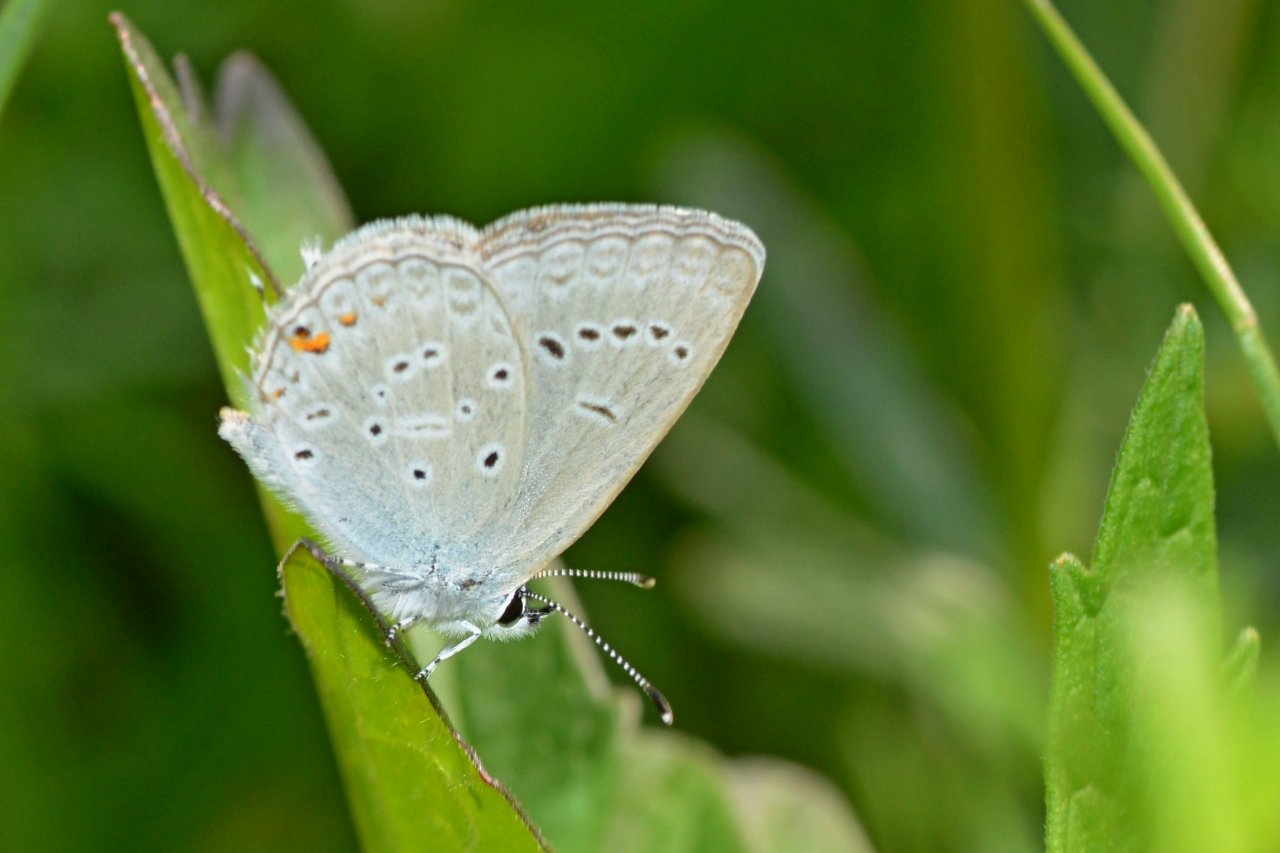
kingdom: Animalia
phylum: Arthropoda
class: Insecta
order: Lepidoptera
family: Lycaenidae
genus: Elkalyce
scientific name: Elkalyce amyntula
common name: Western Tailed-Blue
